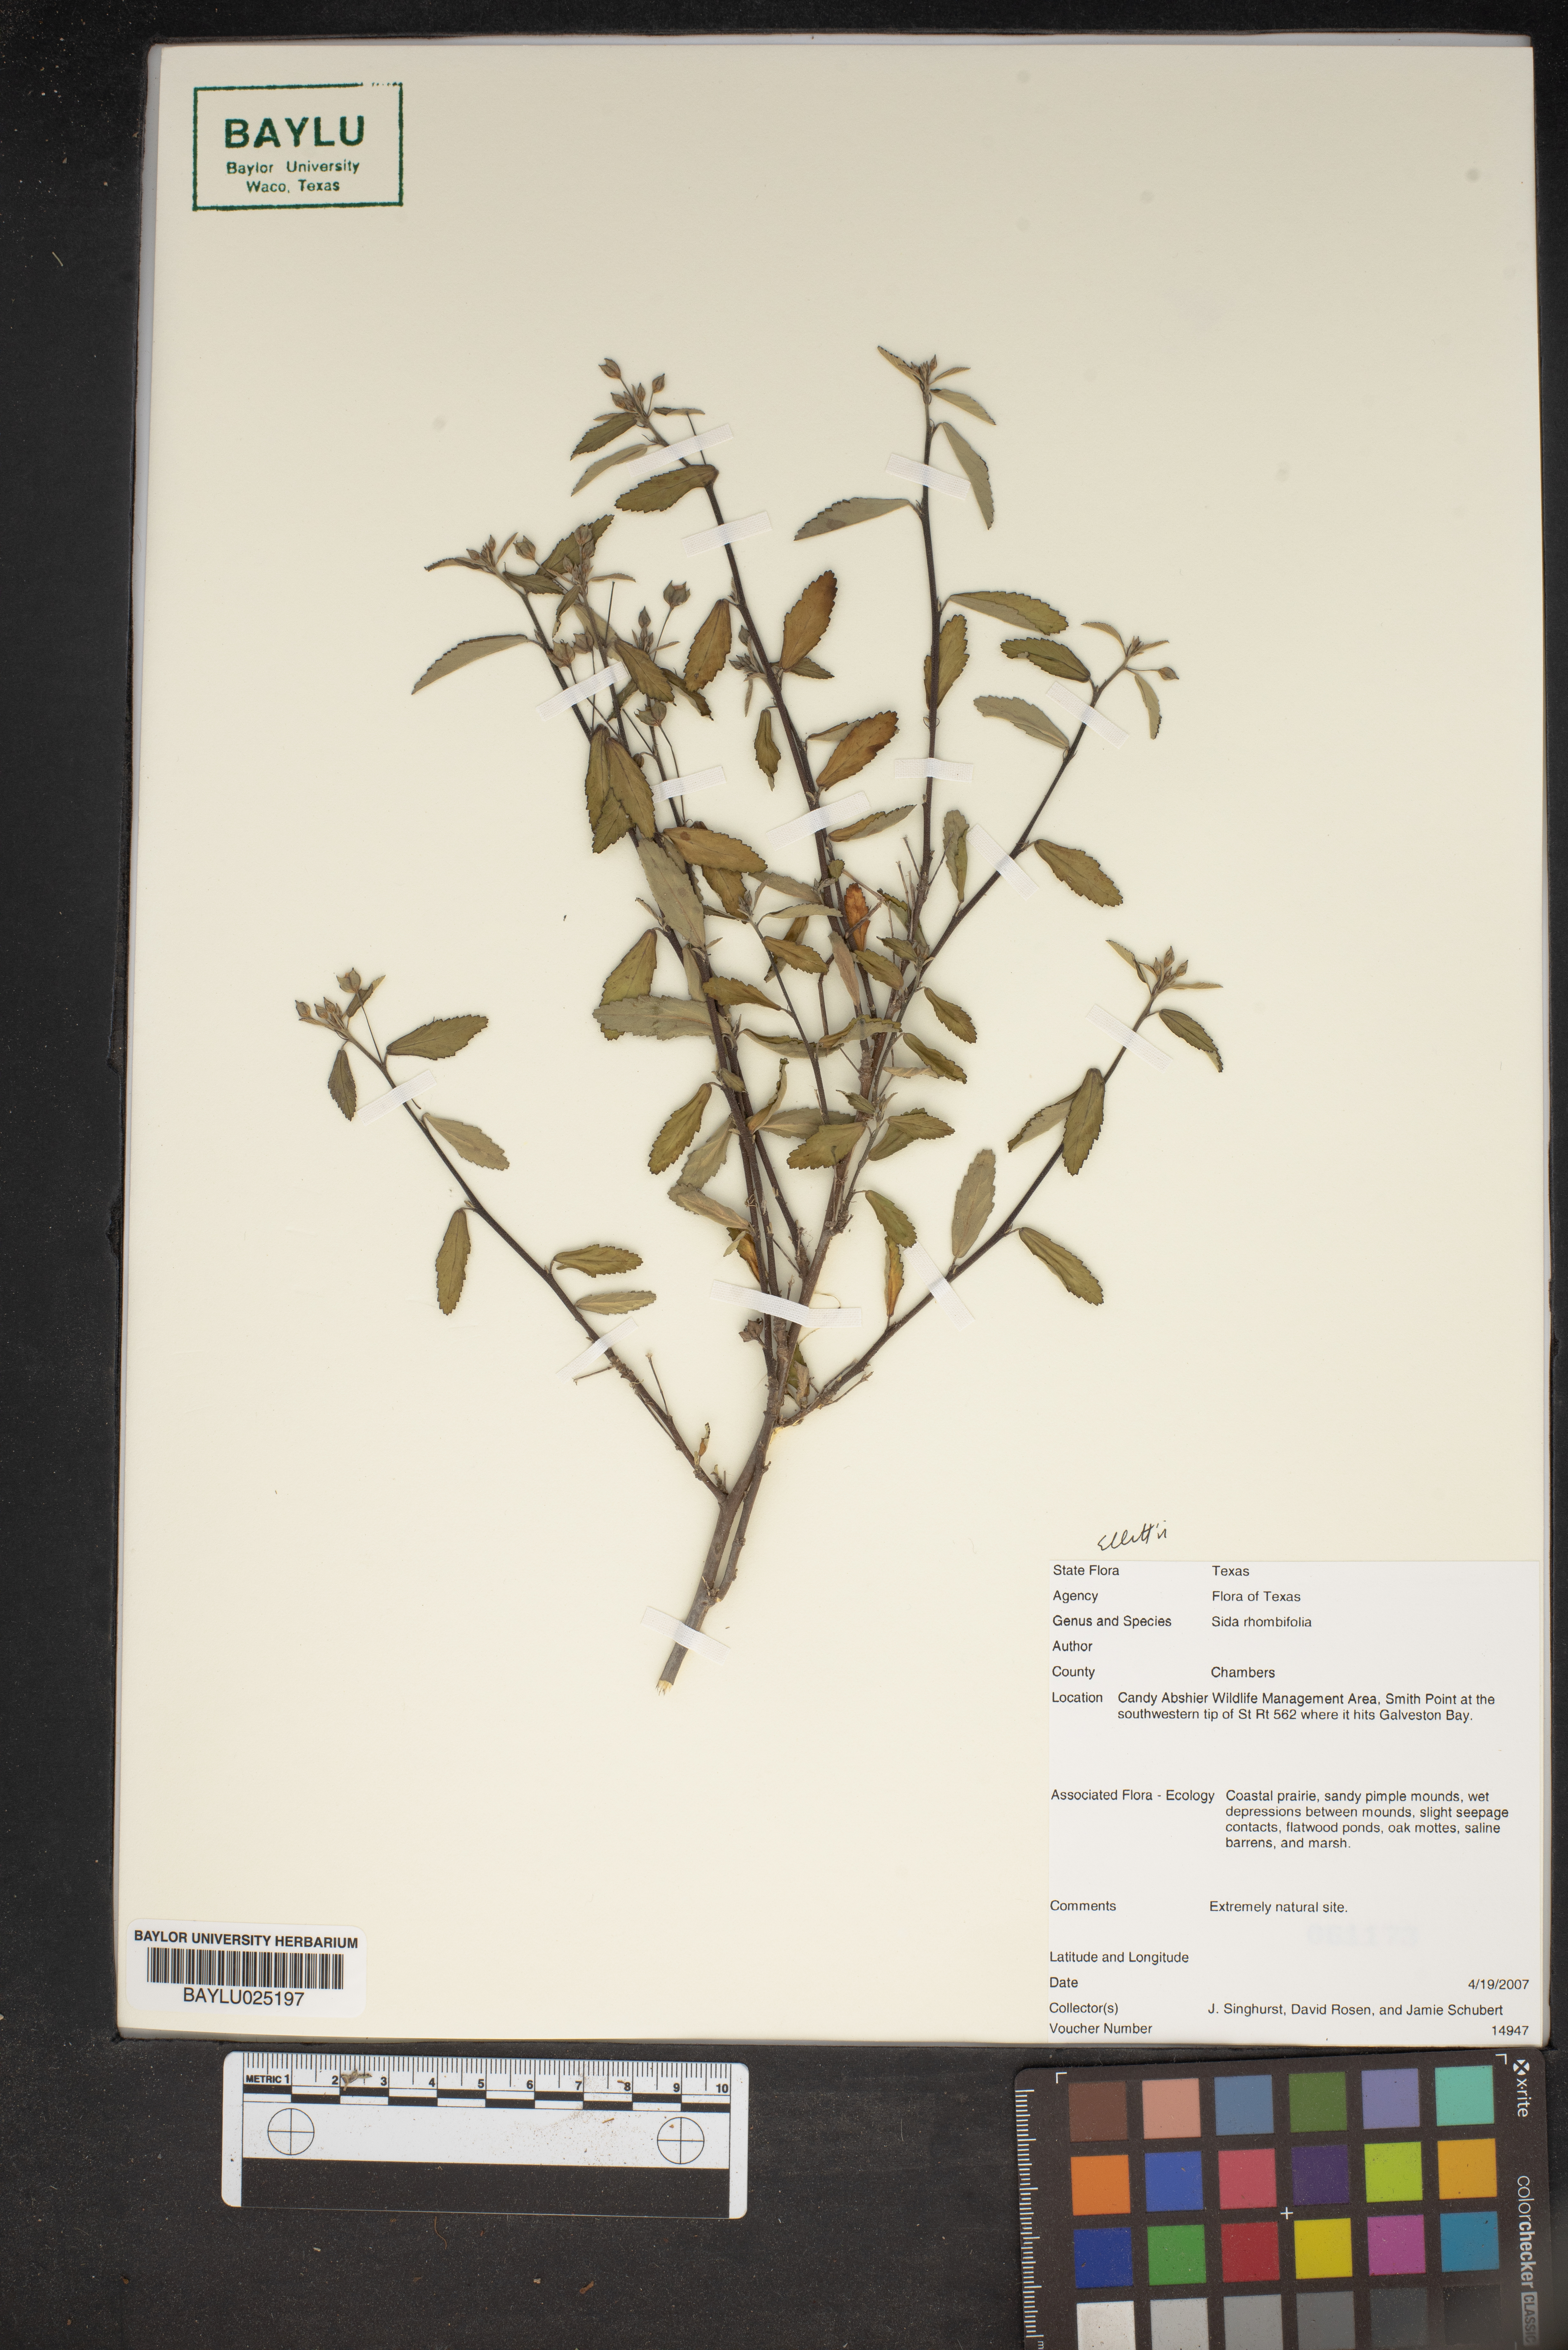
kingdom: Plantae
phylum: Tracheophyta
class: Magnoliopsida
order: Malvales
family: Malvaceae
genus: Sida
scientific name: Sida rhombifolia
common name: Queensland-hemp
